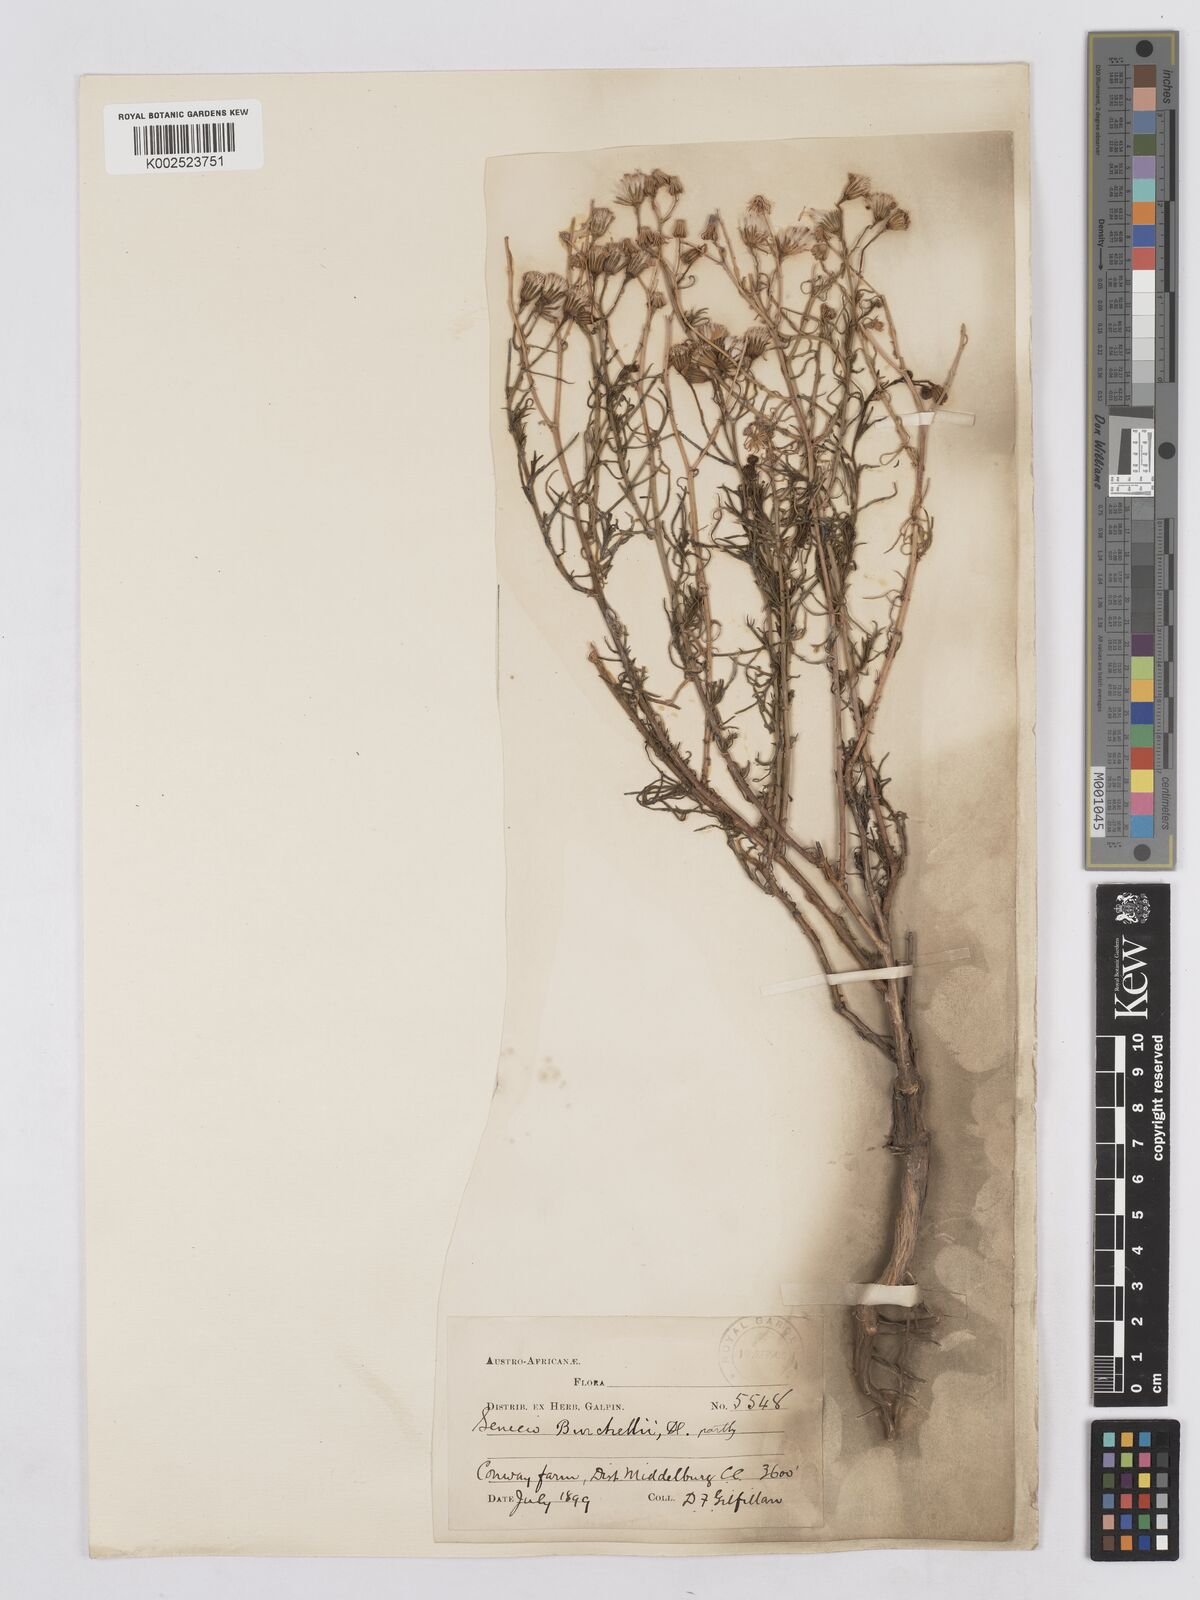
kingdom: Plantae
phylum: Tracheophyta
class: Magnoliopsida
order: Asterales
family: Asteraceae
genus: Senecio
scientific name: Senecio burchellii
